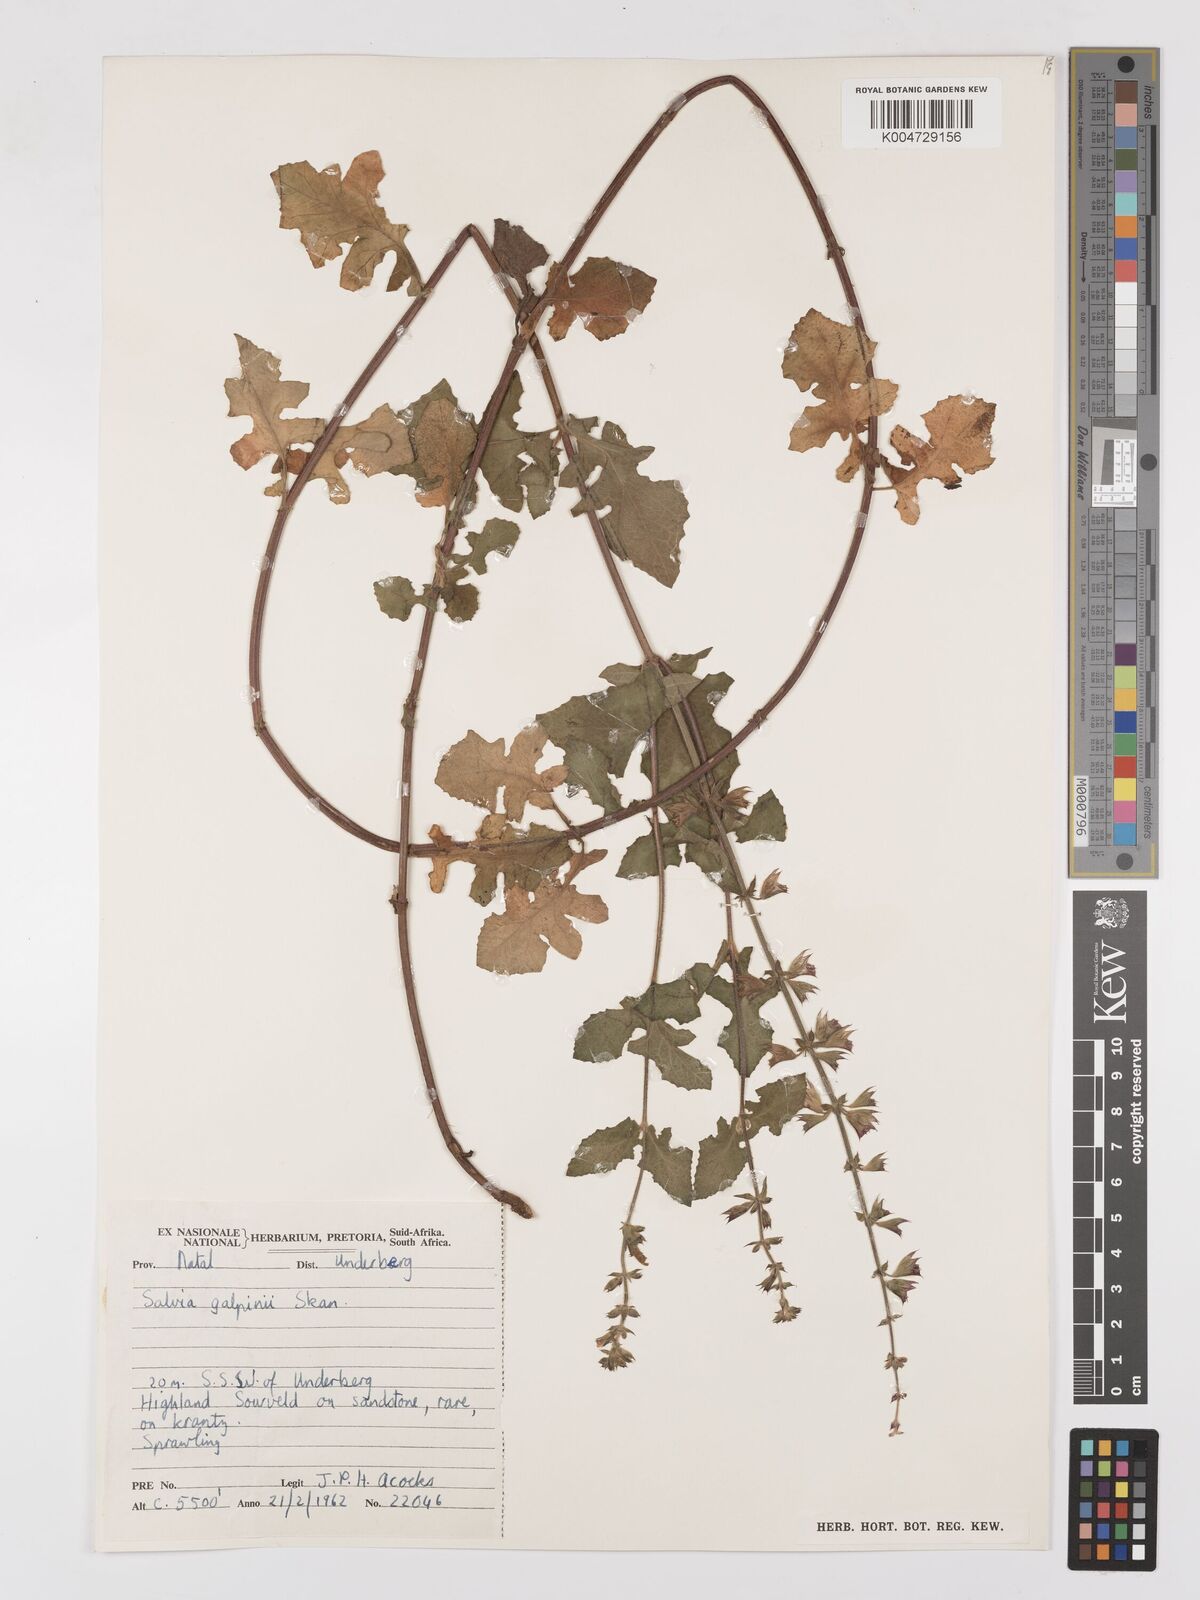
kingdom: Plantae
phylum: Tracheophyta
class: Magnoliopsida
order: Lamiales
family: Lamiaceae
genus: Salvia
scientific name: Salvia aurita
